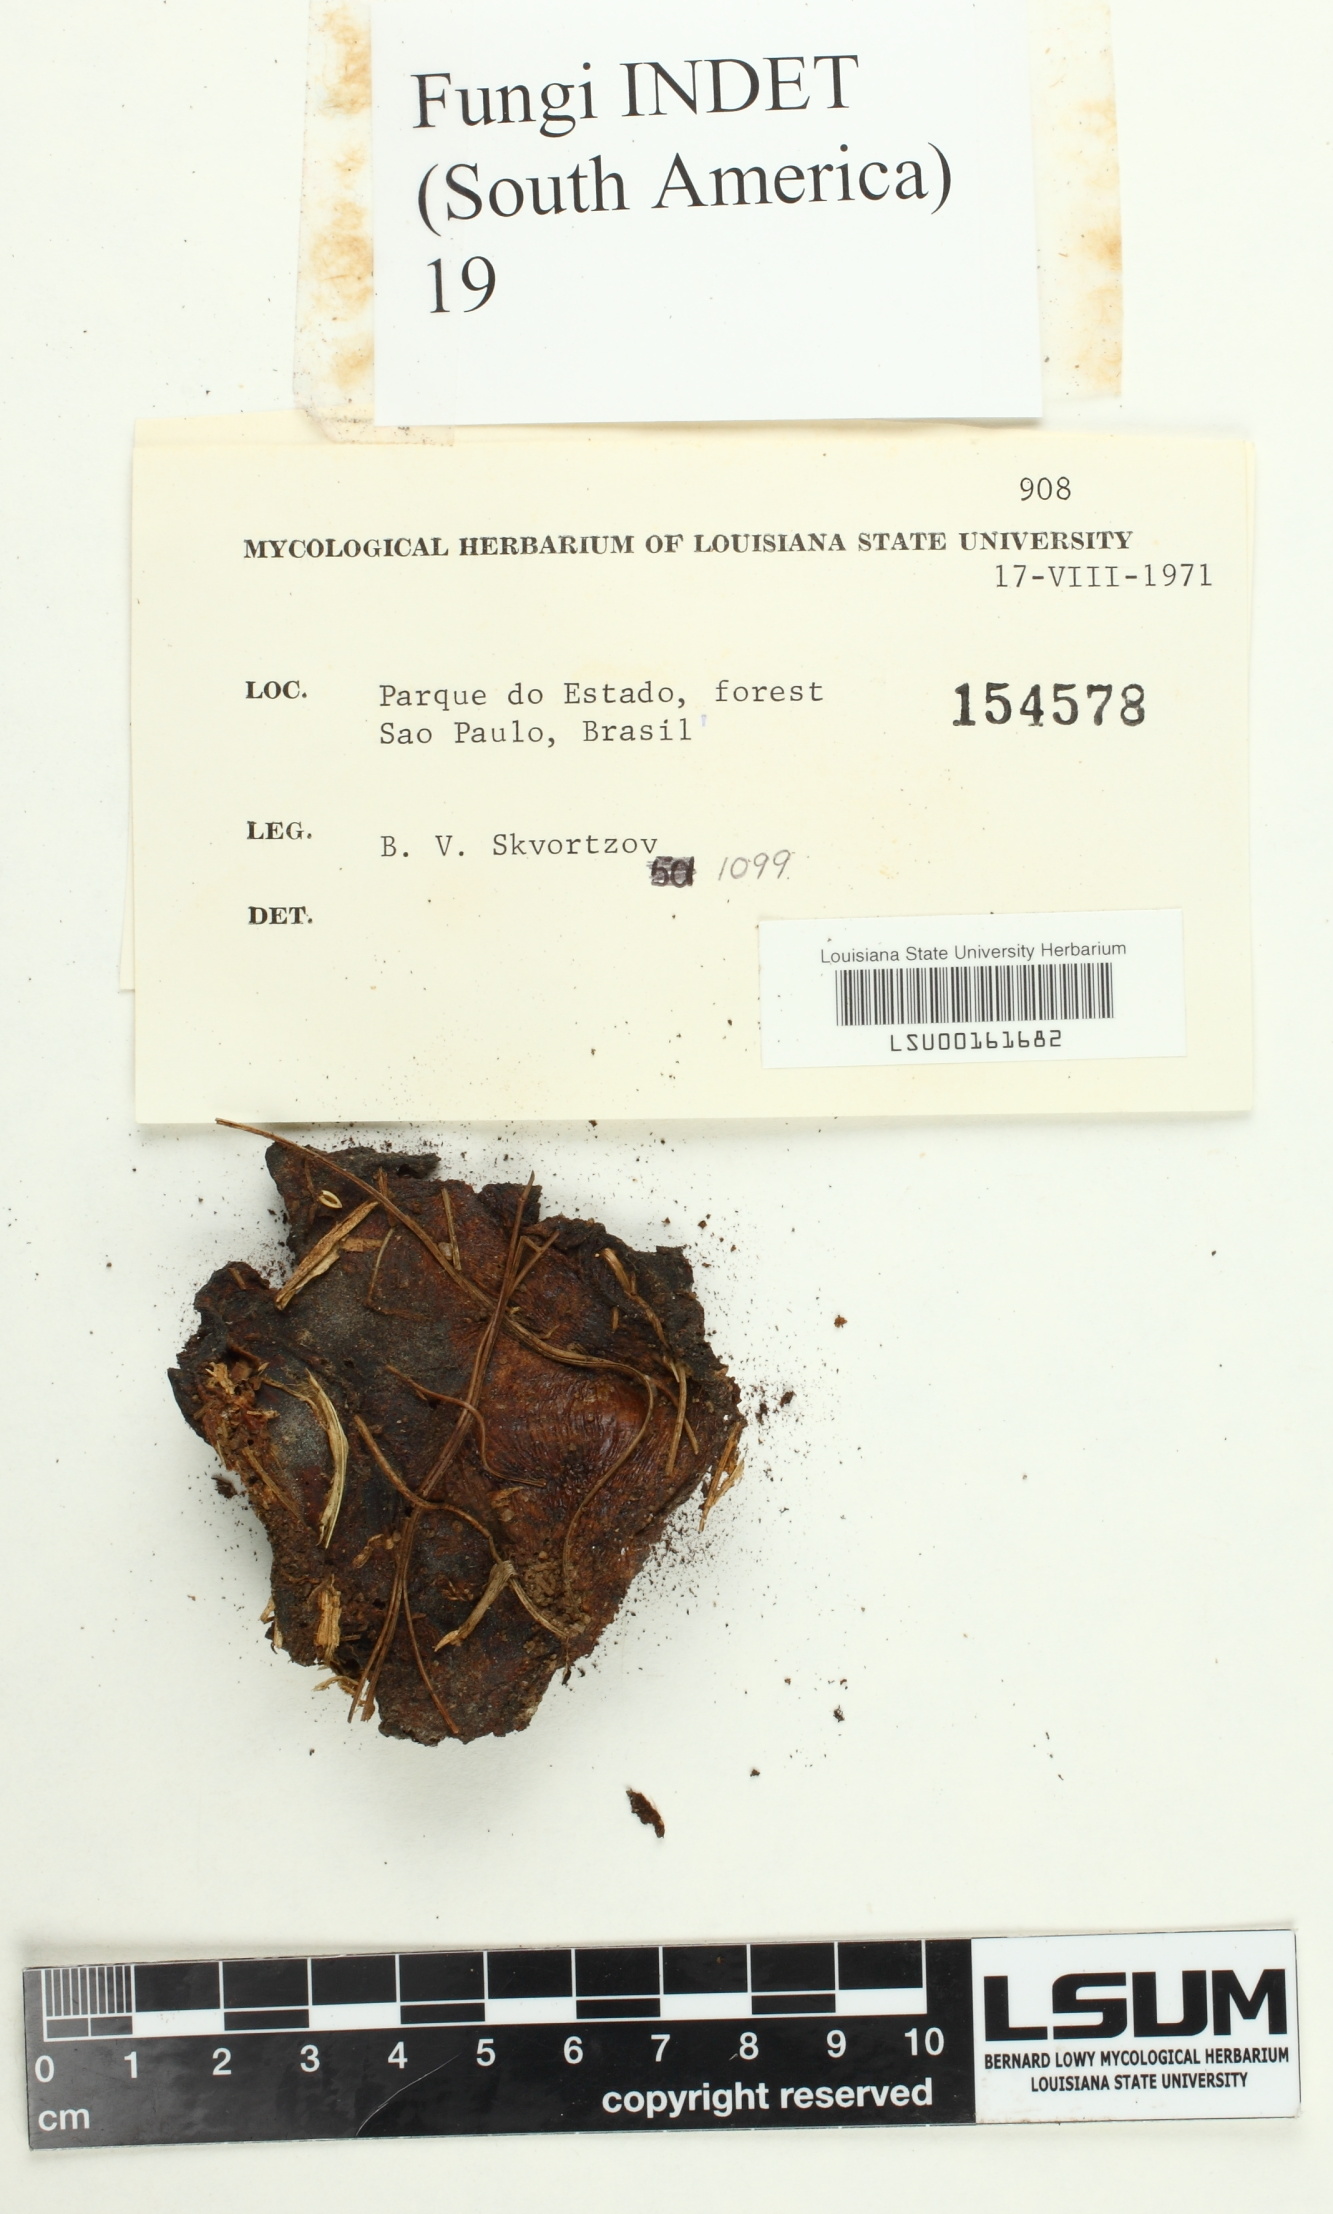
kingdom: Fungi
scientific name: Fungi
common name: Fungi
